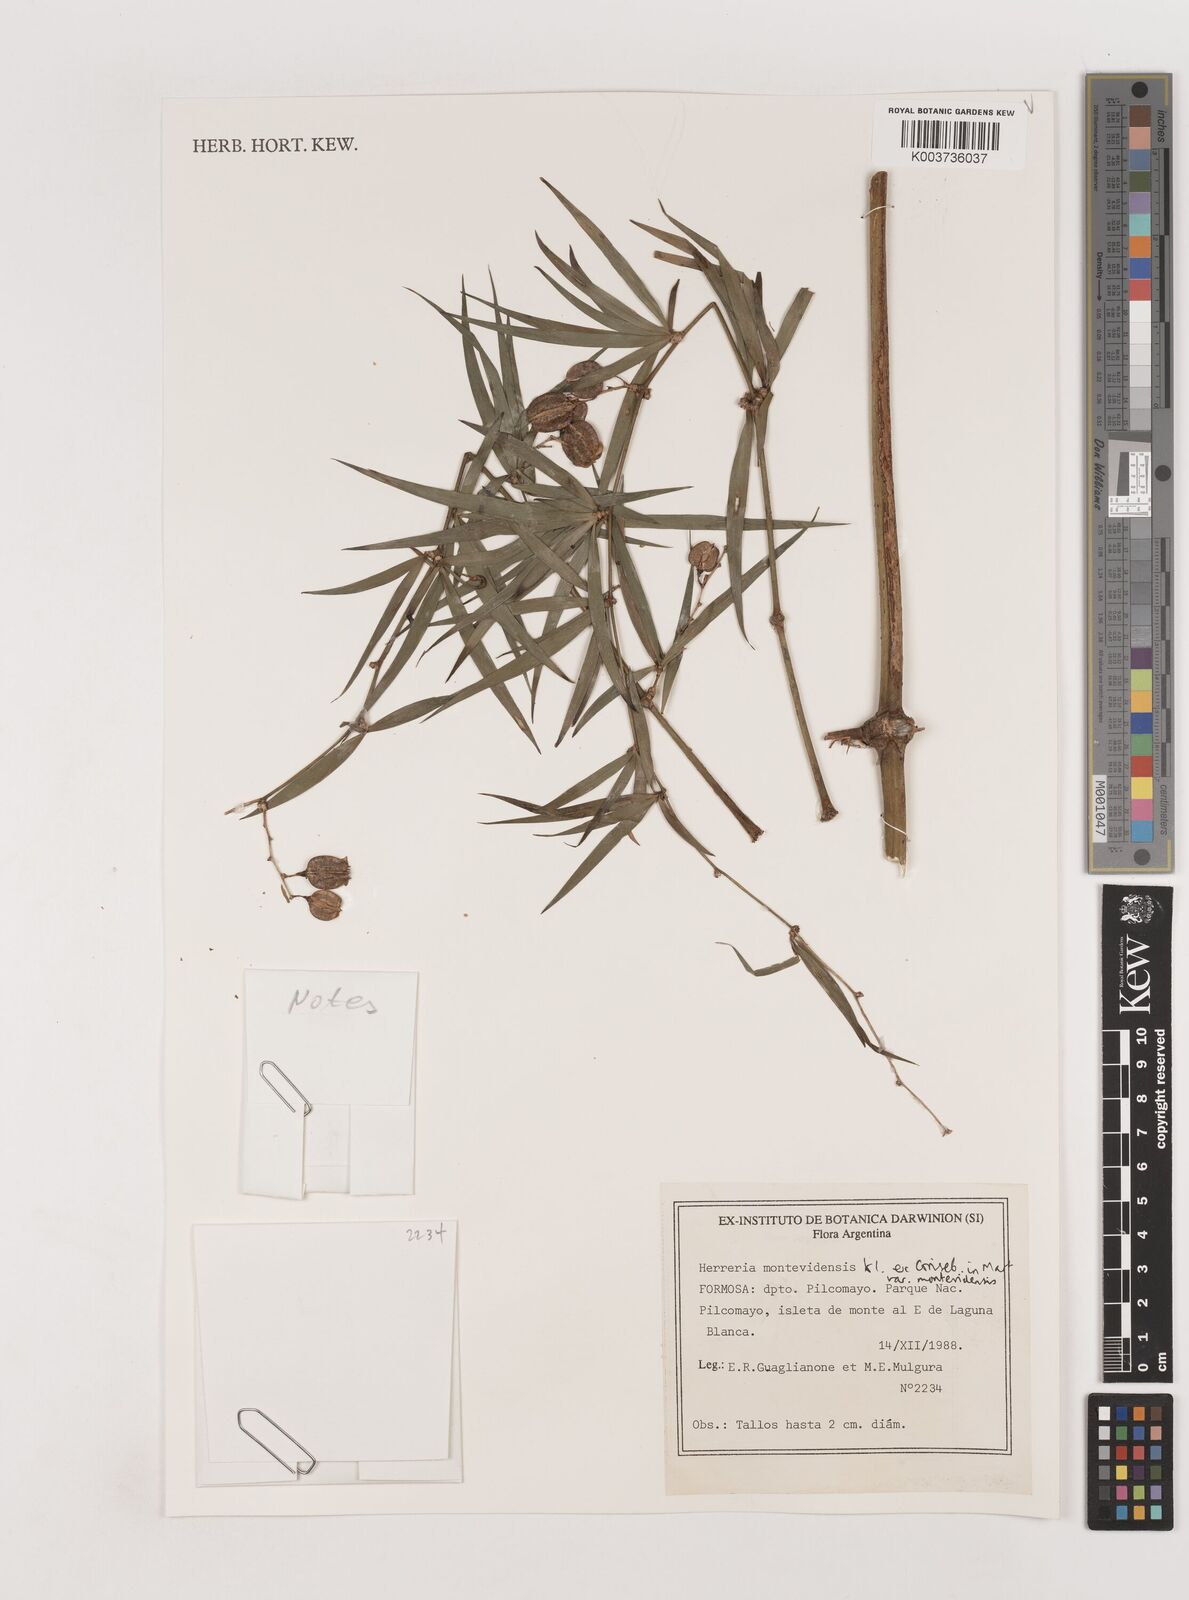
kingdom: Plantae
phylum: Tracheophyta
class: Liliopsida
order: Asparagales
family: Asparagaceae
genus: Herreria
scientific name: Herreria montevidensis
